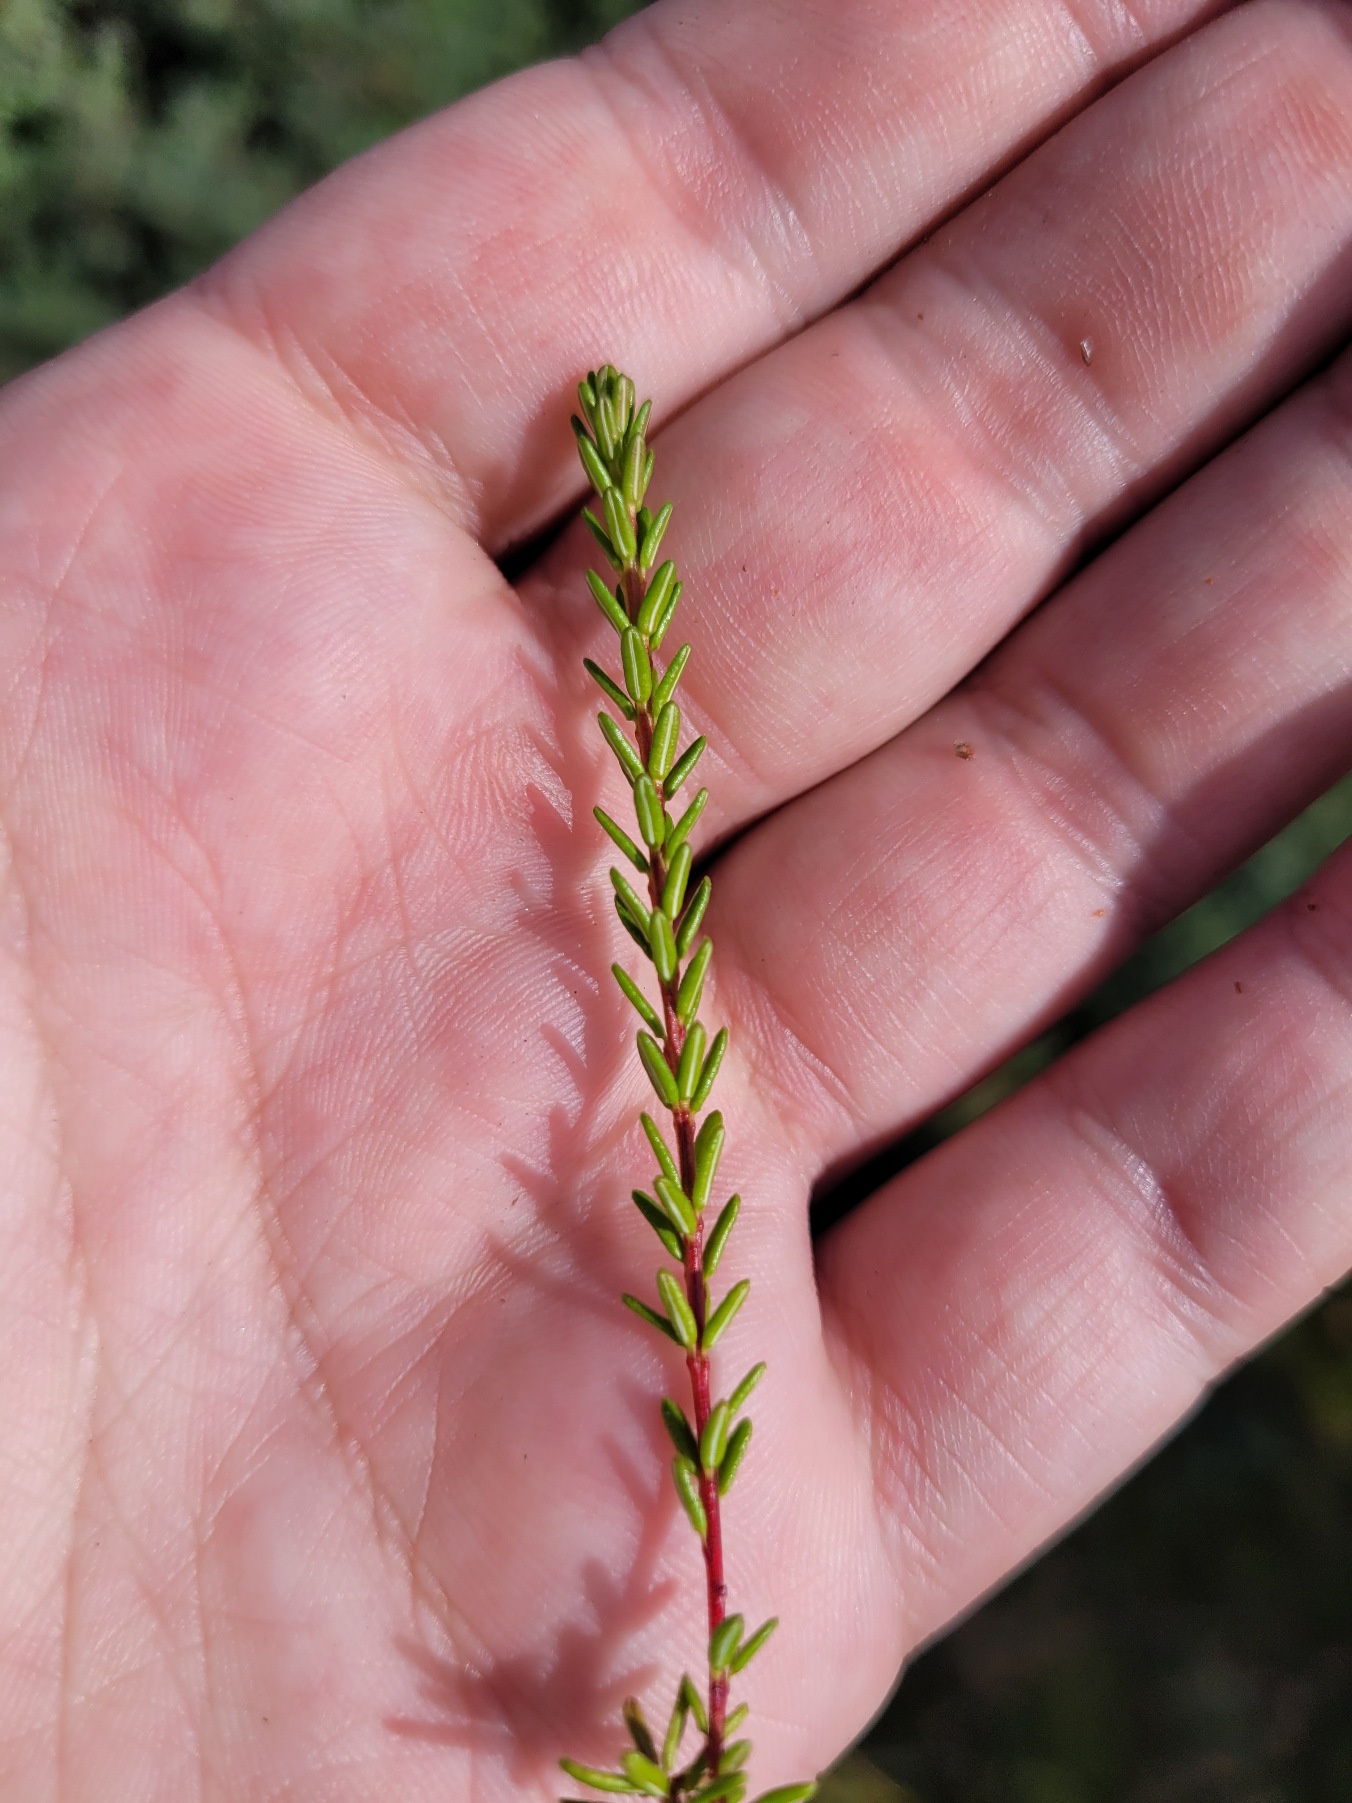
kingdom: Plantae
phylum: Tracheophyta
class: Magnoliopsida
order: Ericales
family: Ericaceae
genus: Empetrum
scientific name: Empetrum nigrum
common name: Revling
